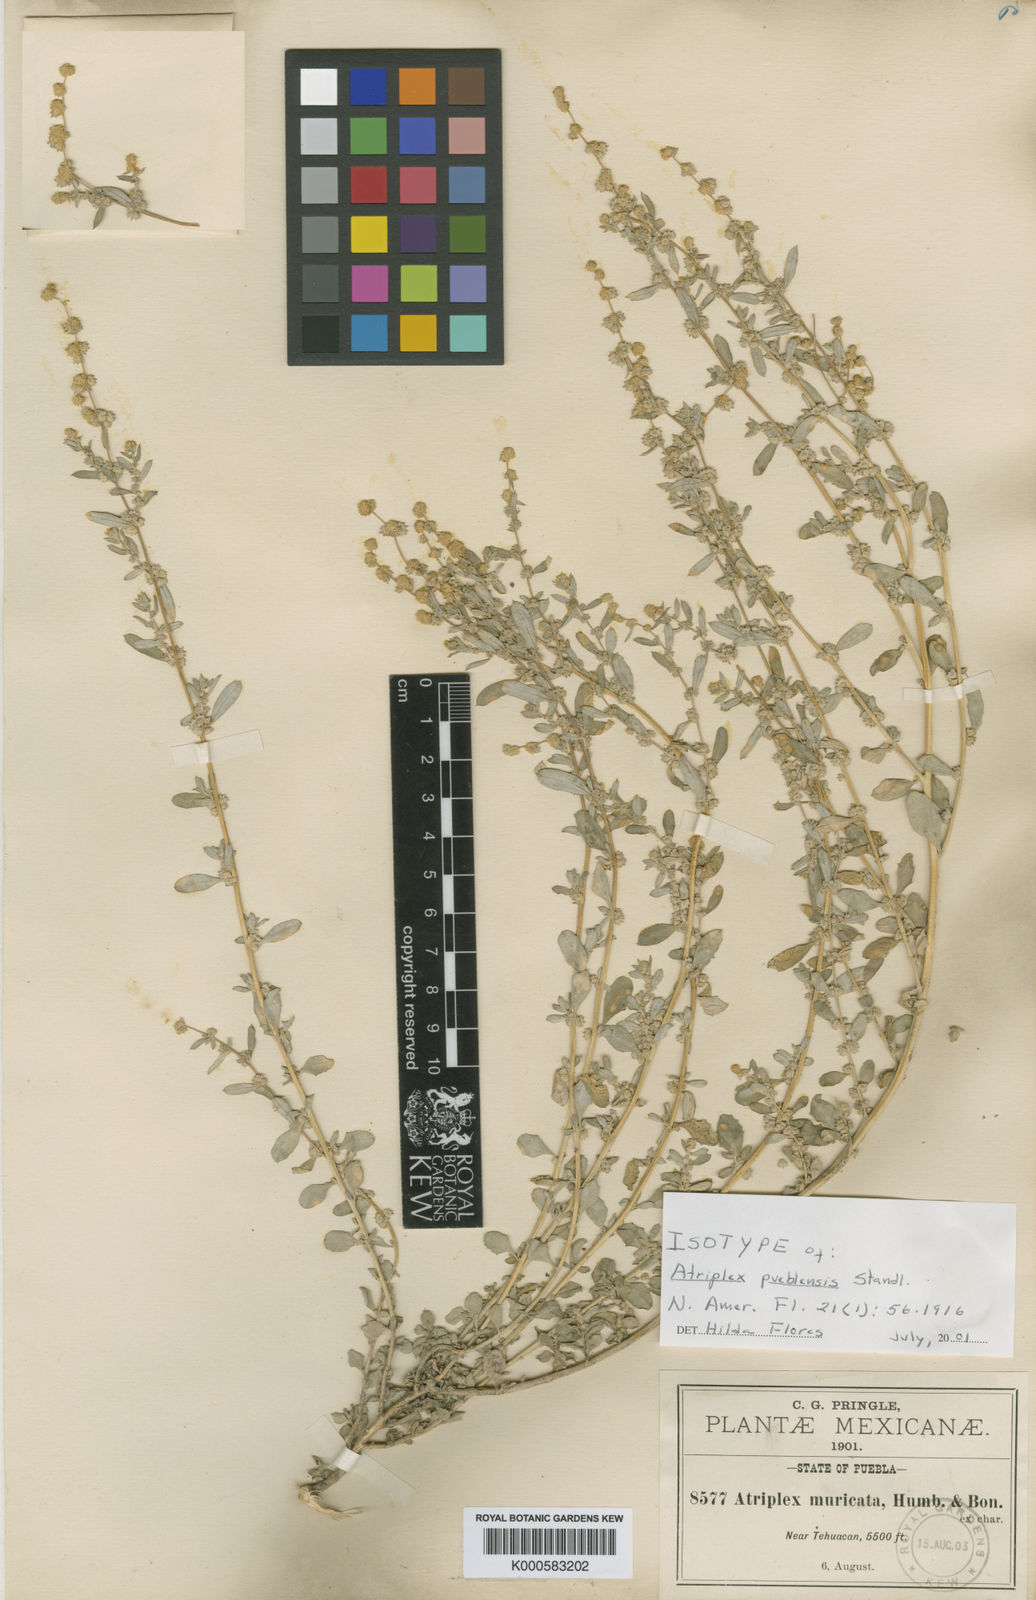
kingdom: Plantae
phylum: Tracheophyta
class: Magnoliopsida
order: Caryophyllales
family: Amaranthaceae
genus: Atriplex
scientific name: Atriplex pueblensis
